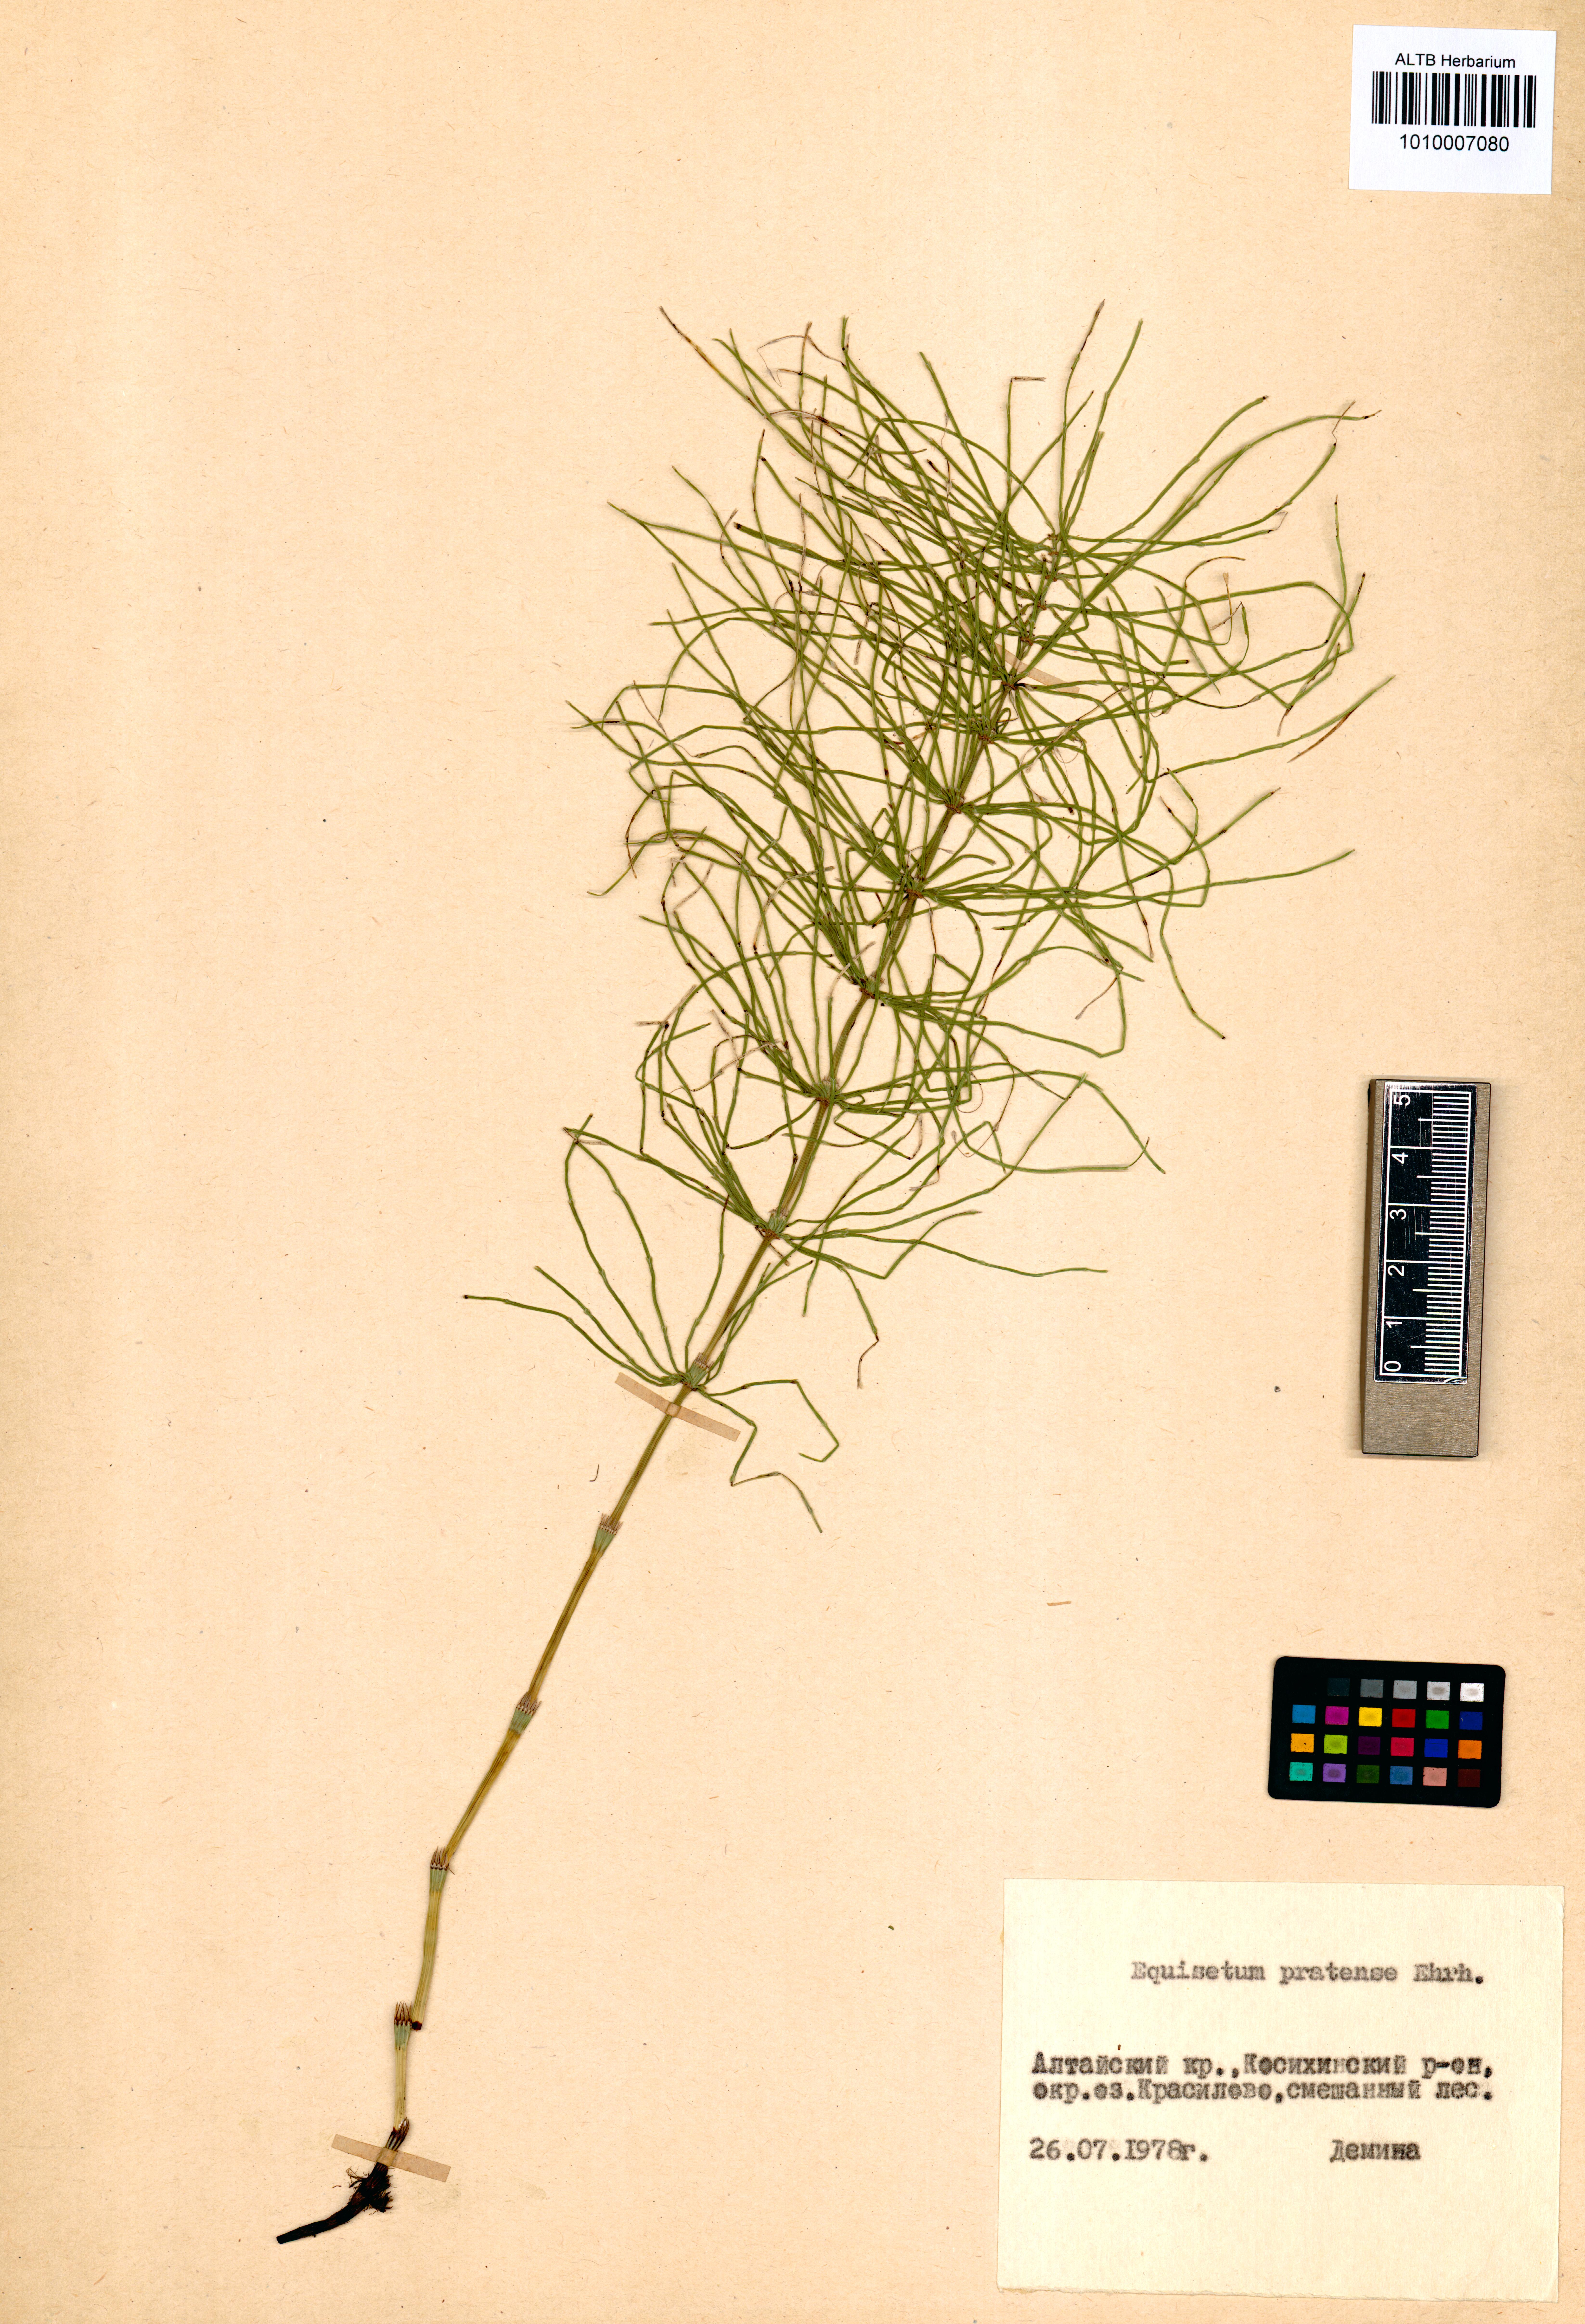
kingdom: Plantae
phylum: Tracheophyta
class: Polypodiopsida
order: Equisetales
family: Equisetaceae
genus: Equisetum
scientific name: Equisetum pratense
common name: Meadow horsetail
